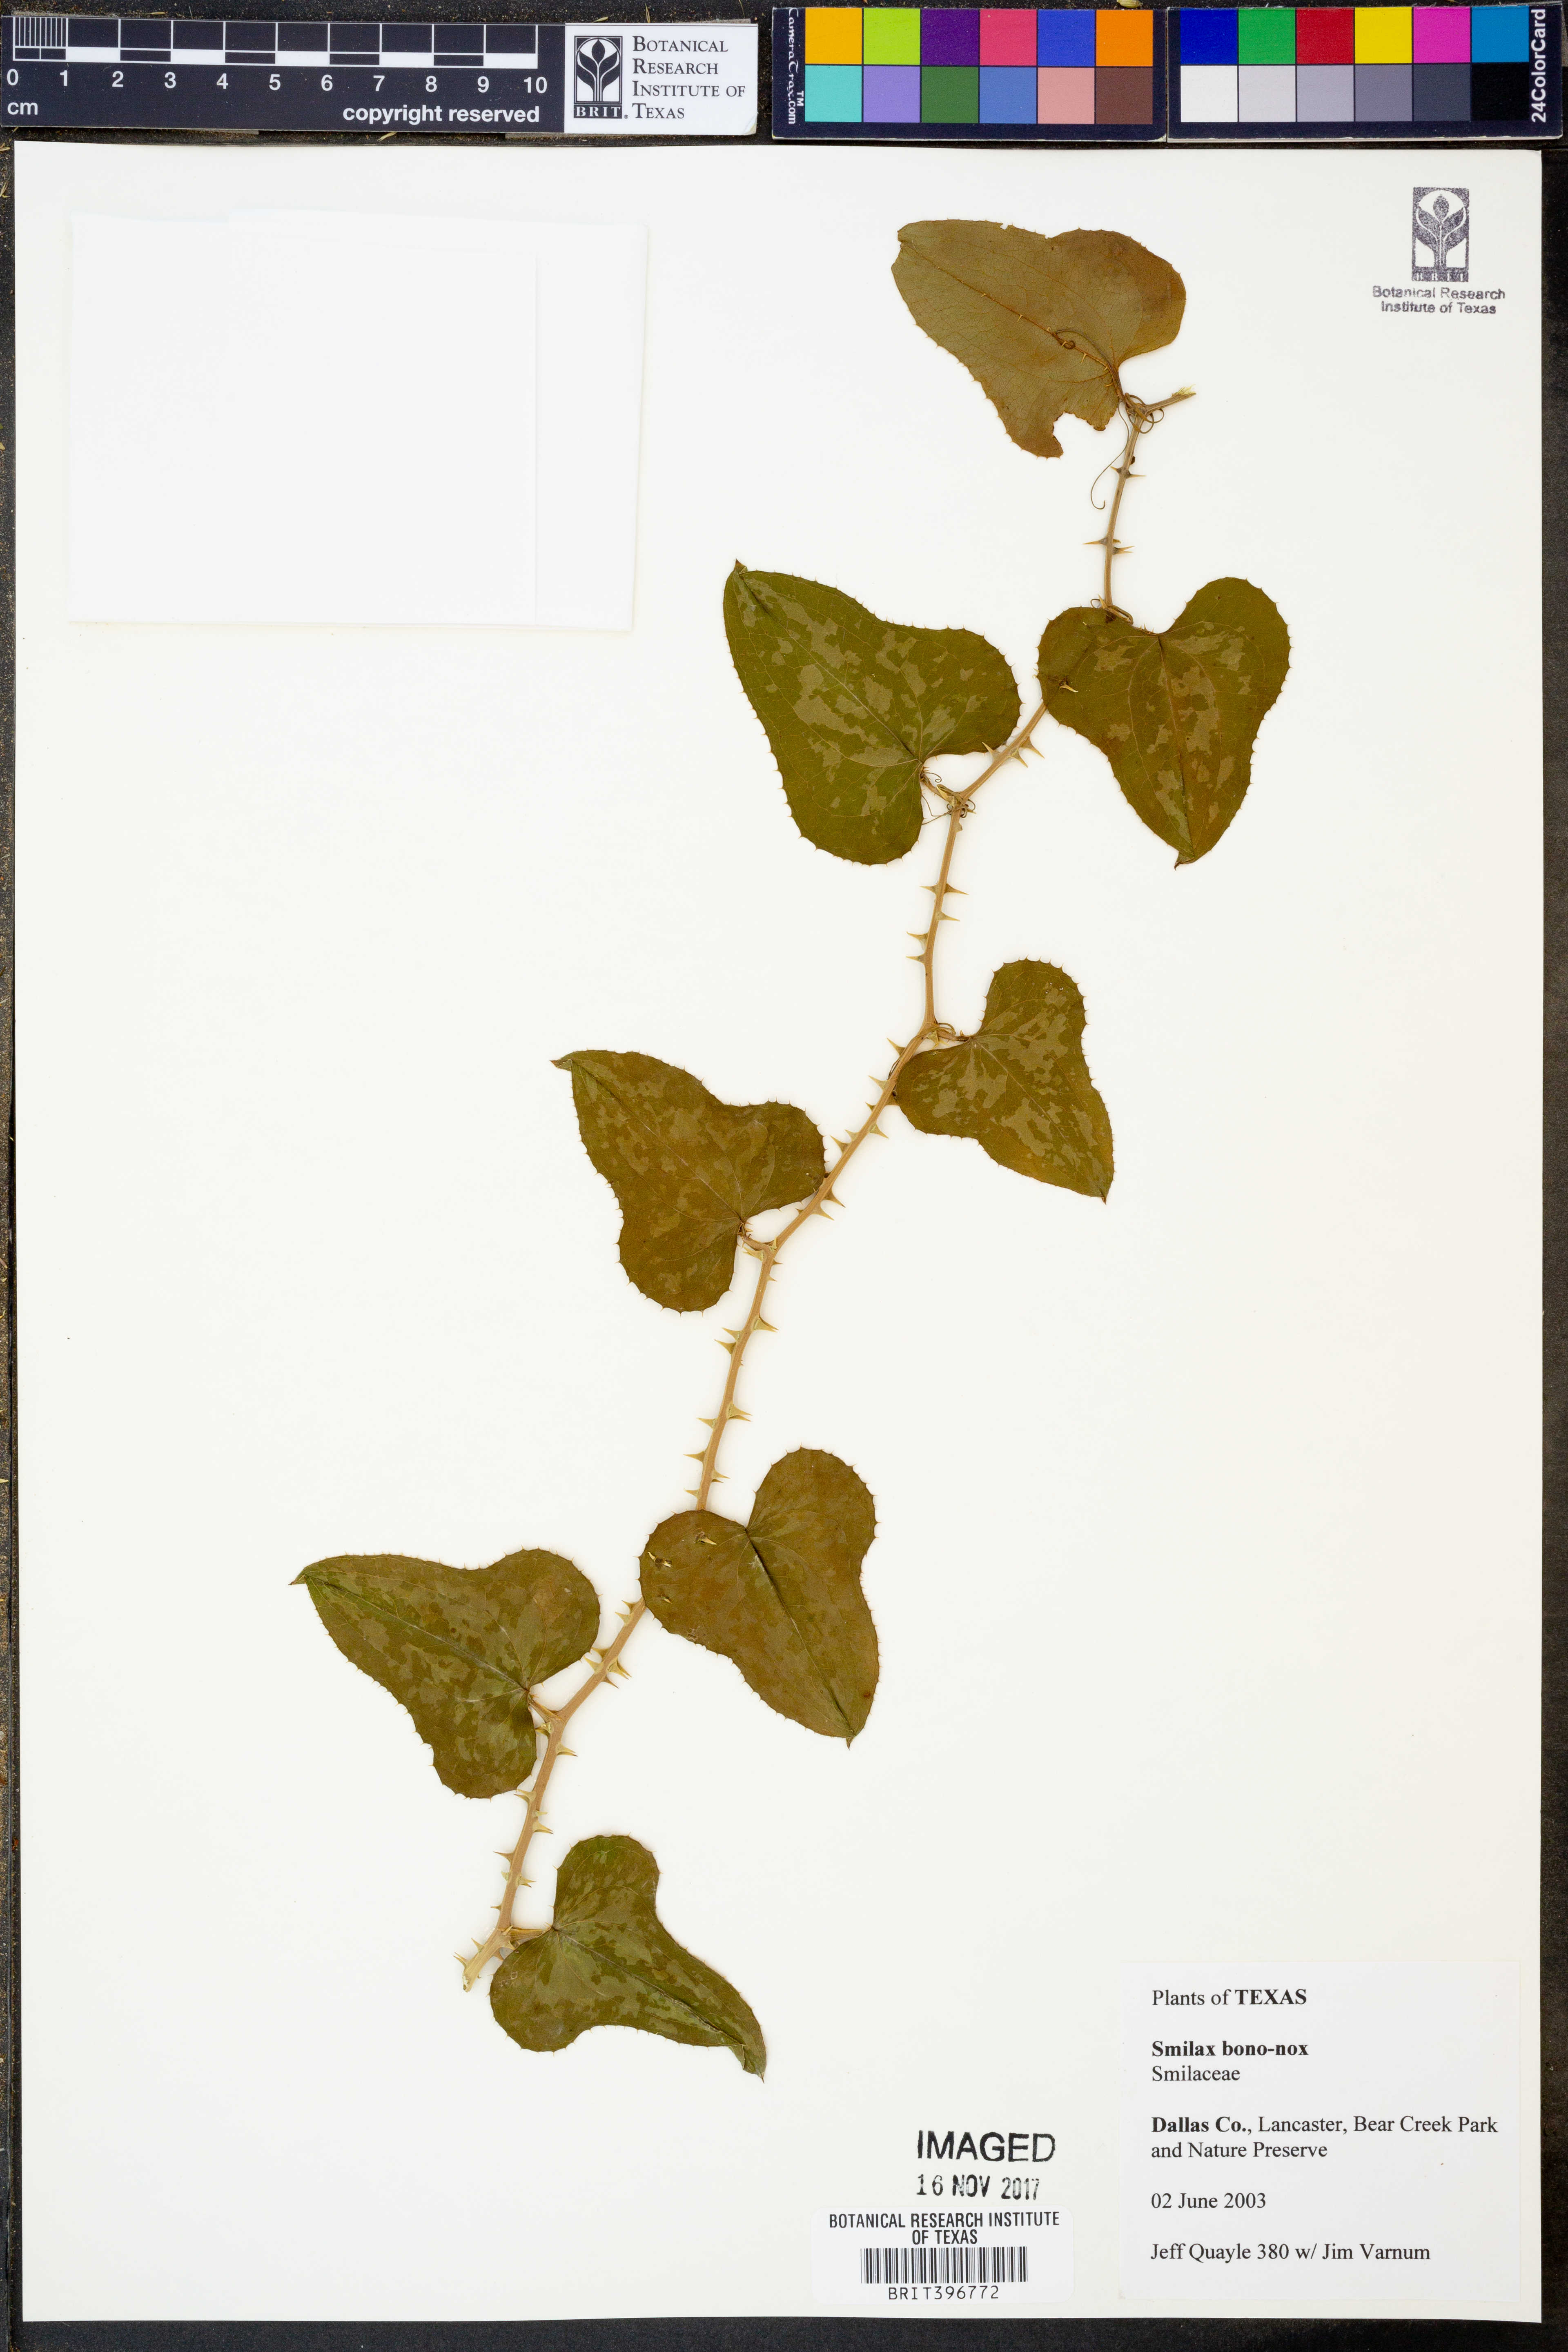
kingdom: Plantae
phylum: Tracheophyta
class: Liliopsida
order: Liliales
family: Smilacaceae
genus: Smilax
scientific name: Smilax bona-nox
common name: Catbrier
